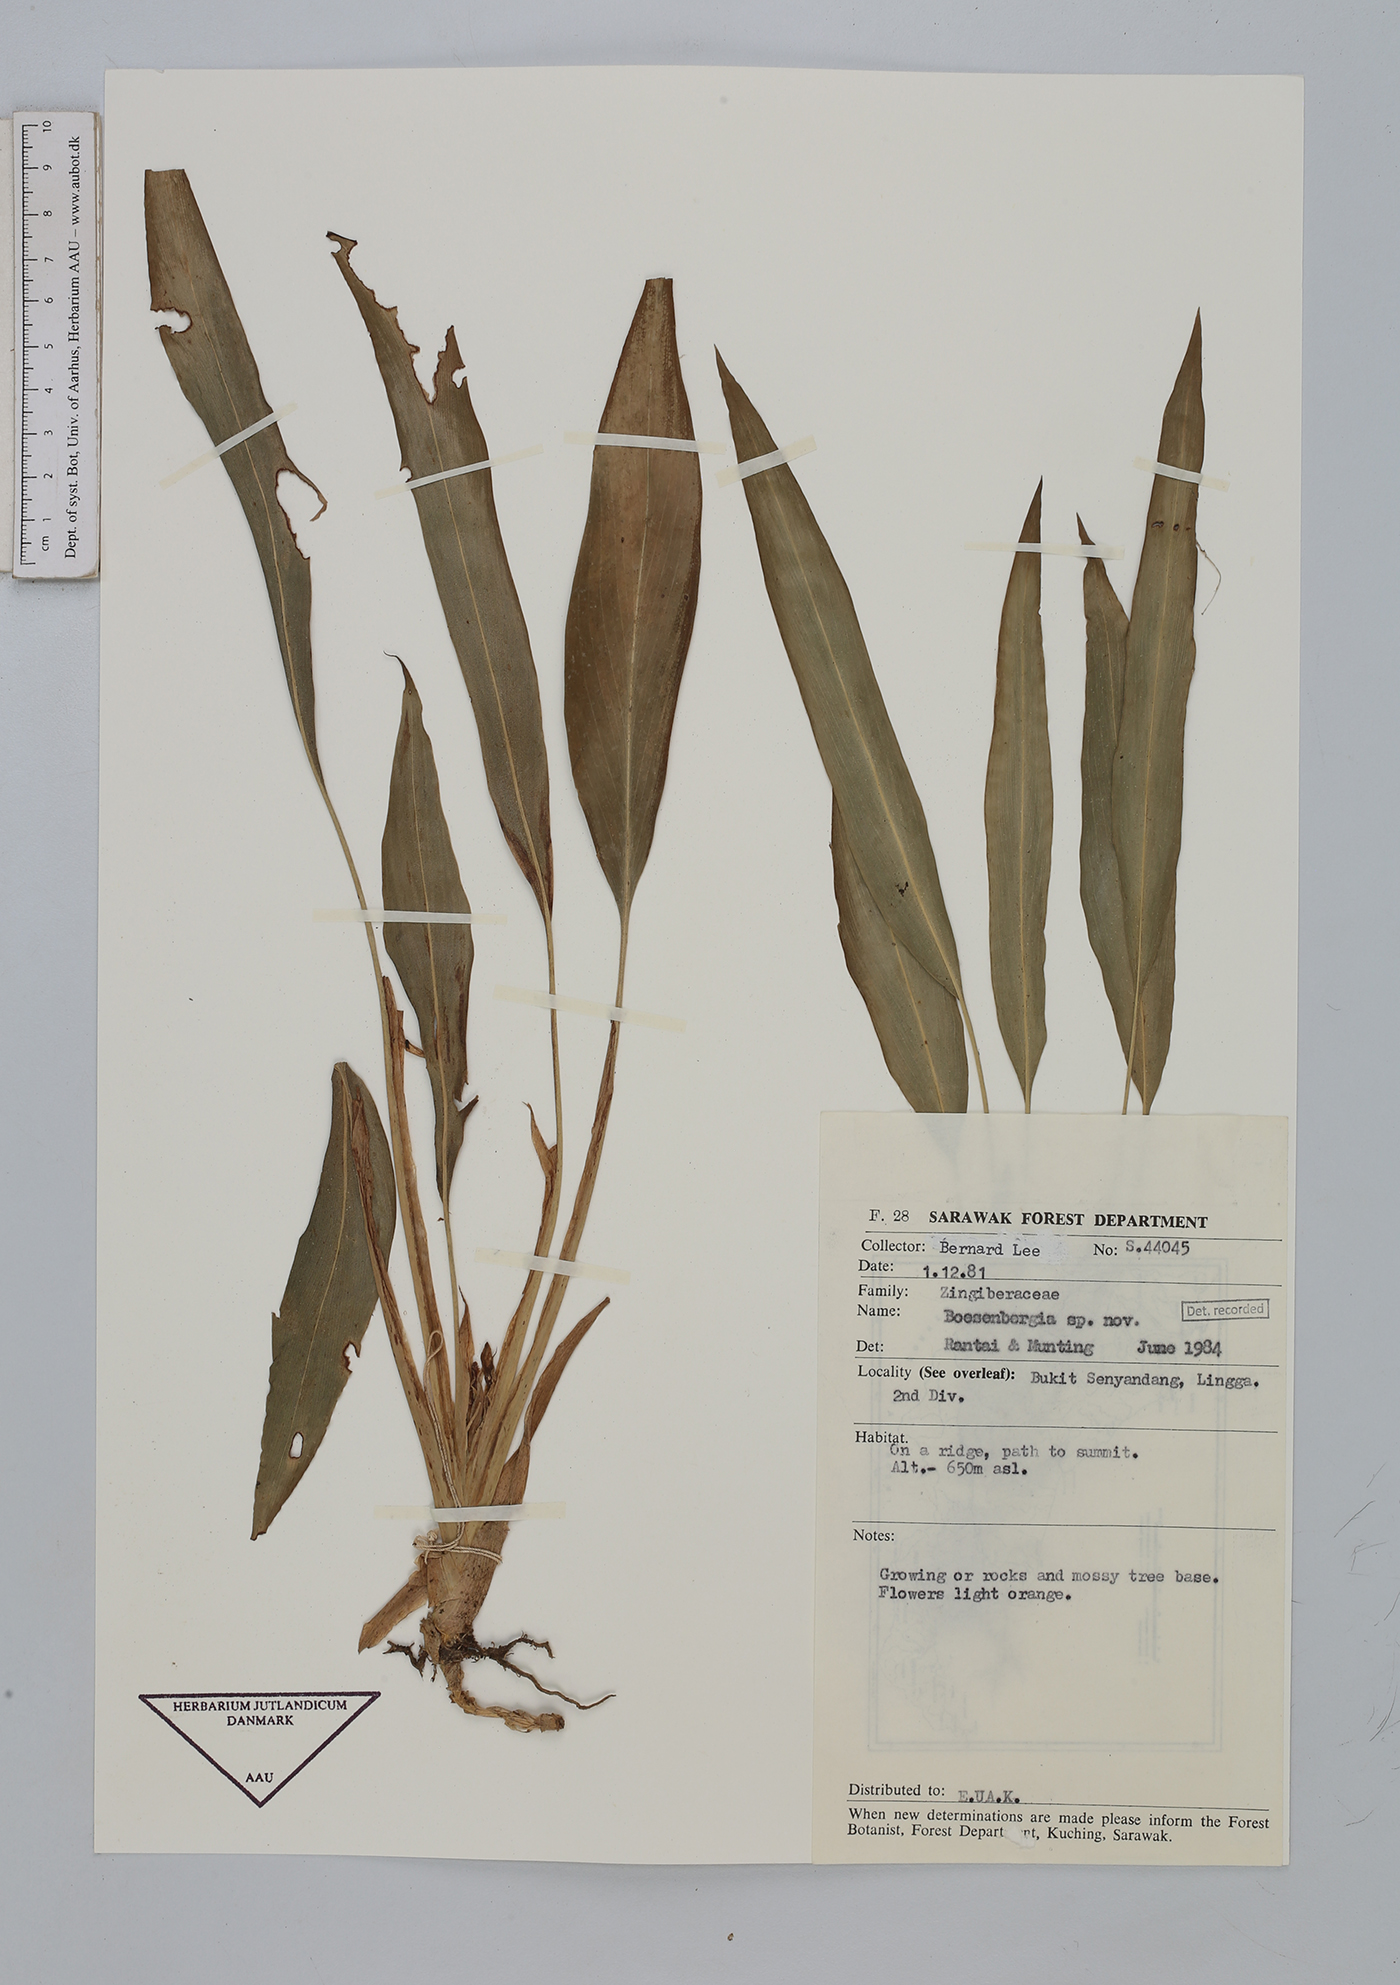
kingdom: Plantae
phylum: Tracheophyta
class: Liliopsida
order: Zingiberales
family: Zingiberaceae
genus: Boesenbergia
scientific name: Boesenbergia
